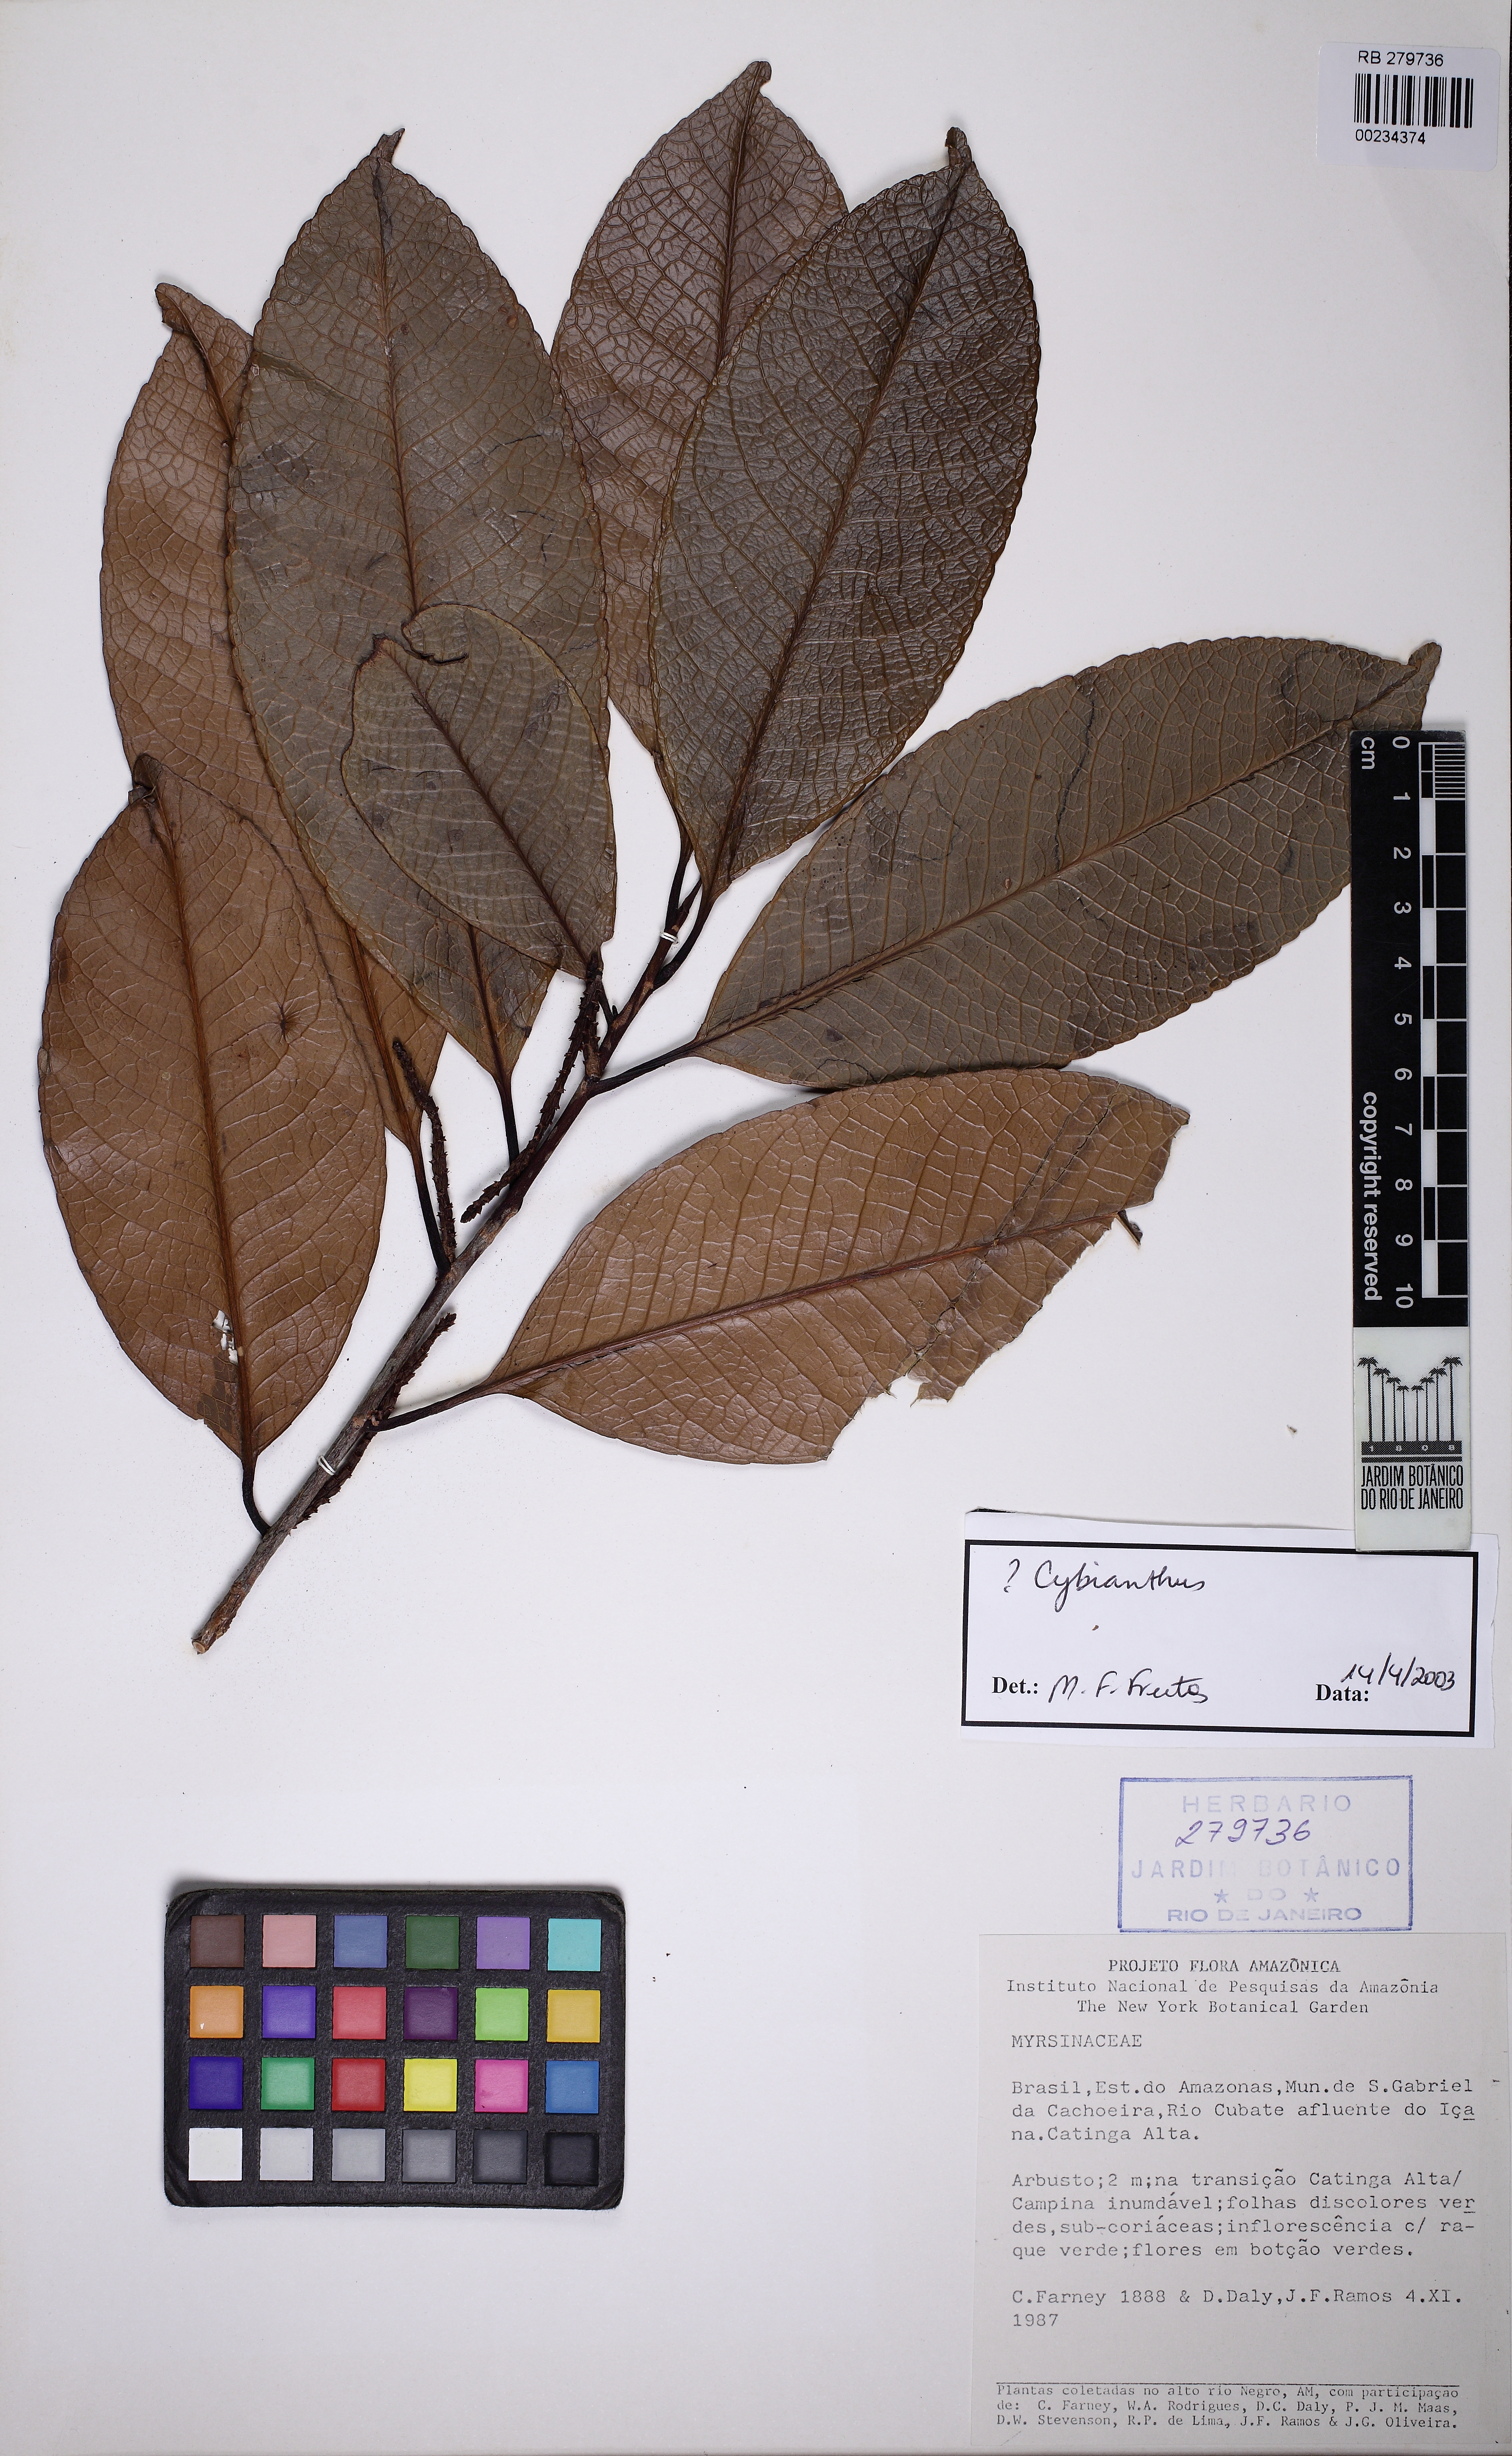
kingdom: Plantae
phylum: Tracheophyta
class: Magnoliopsida
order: Ericales
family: Primulaceae
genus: Cybianthus
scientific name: Cybianthus
